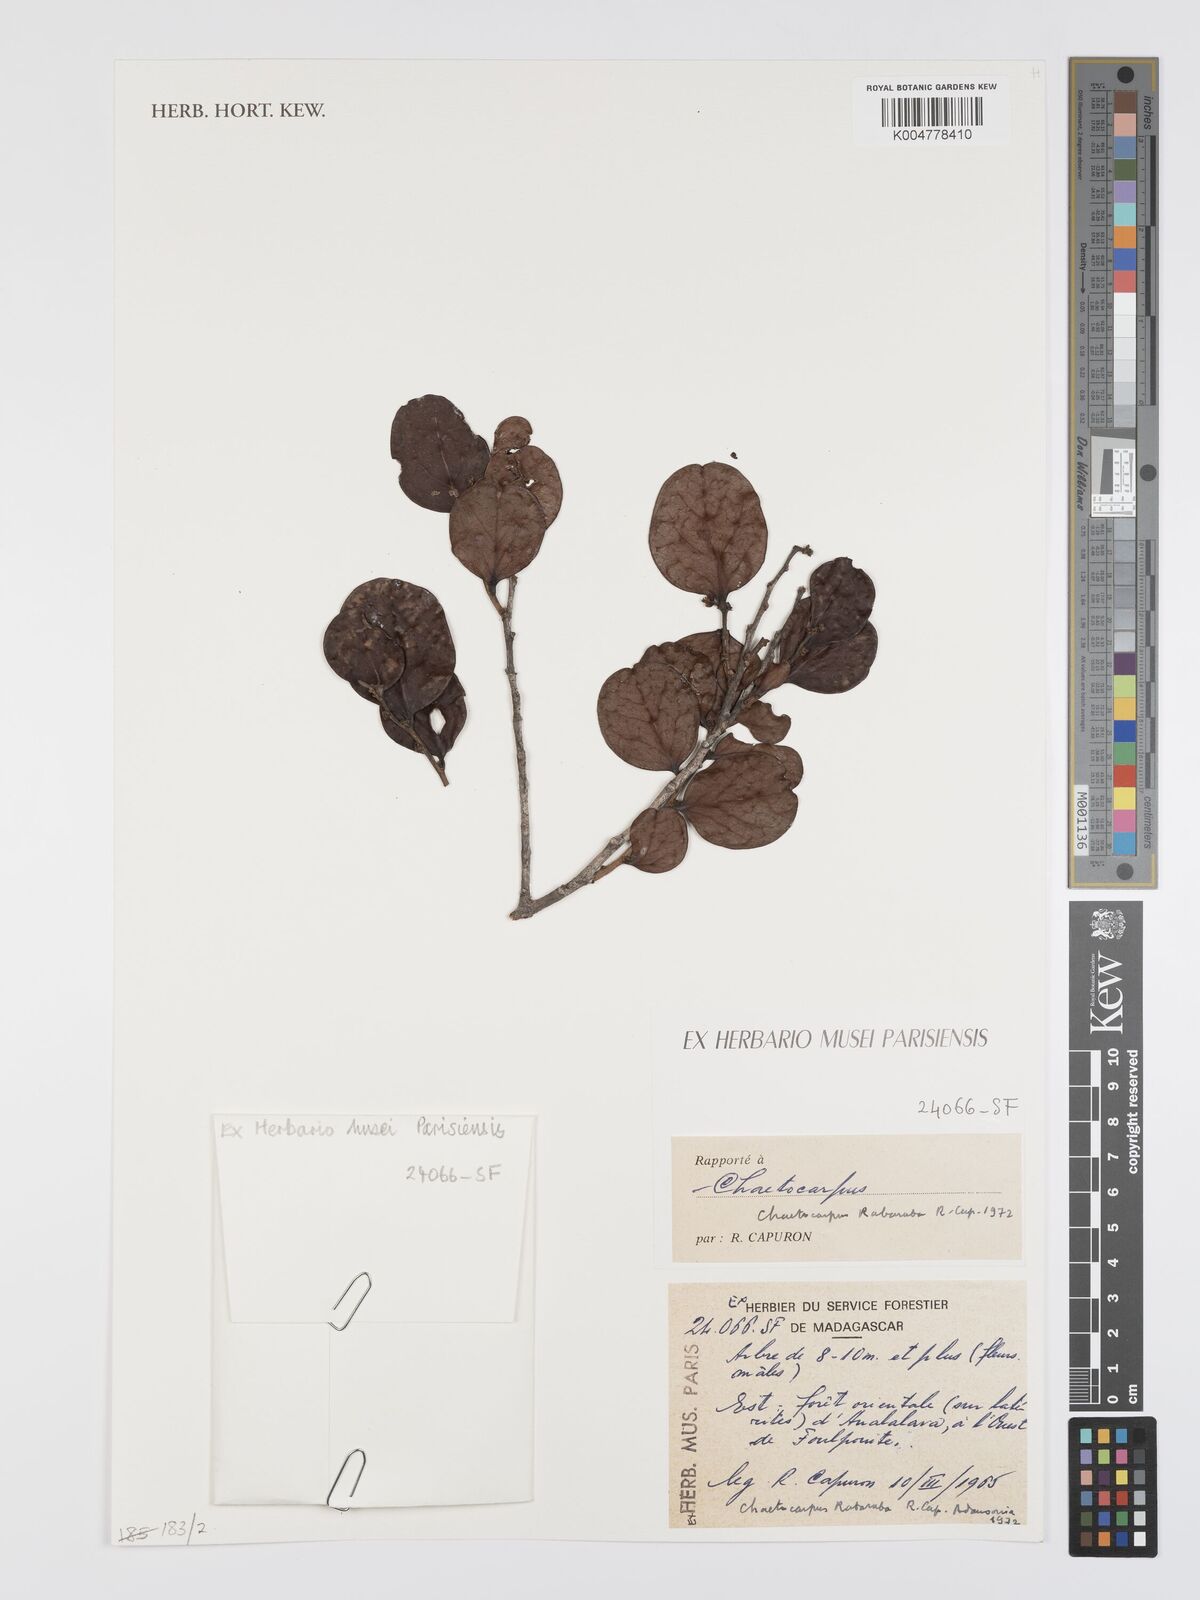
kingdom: Plantae
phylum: Tracheophyta
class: Magnoliopsida
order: Malpighiales
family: Peraceae
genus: Chaetocarpus
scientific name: Chaetocarpus rabaraba
